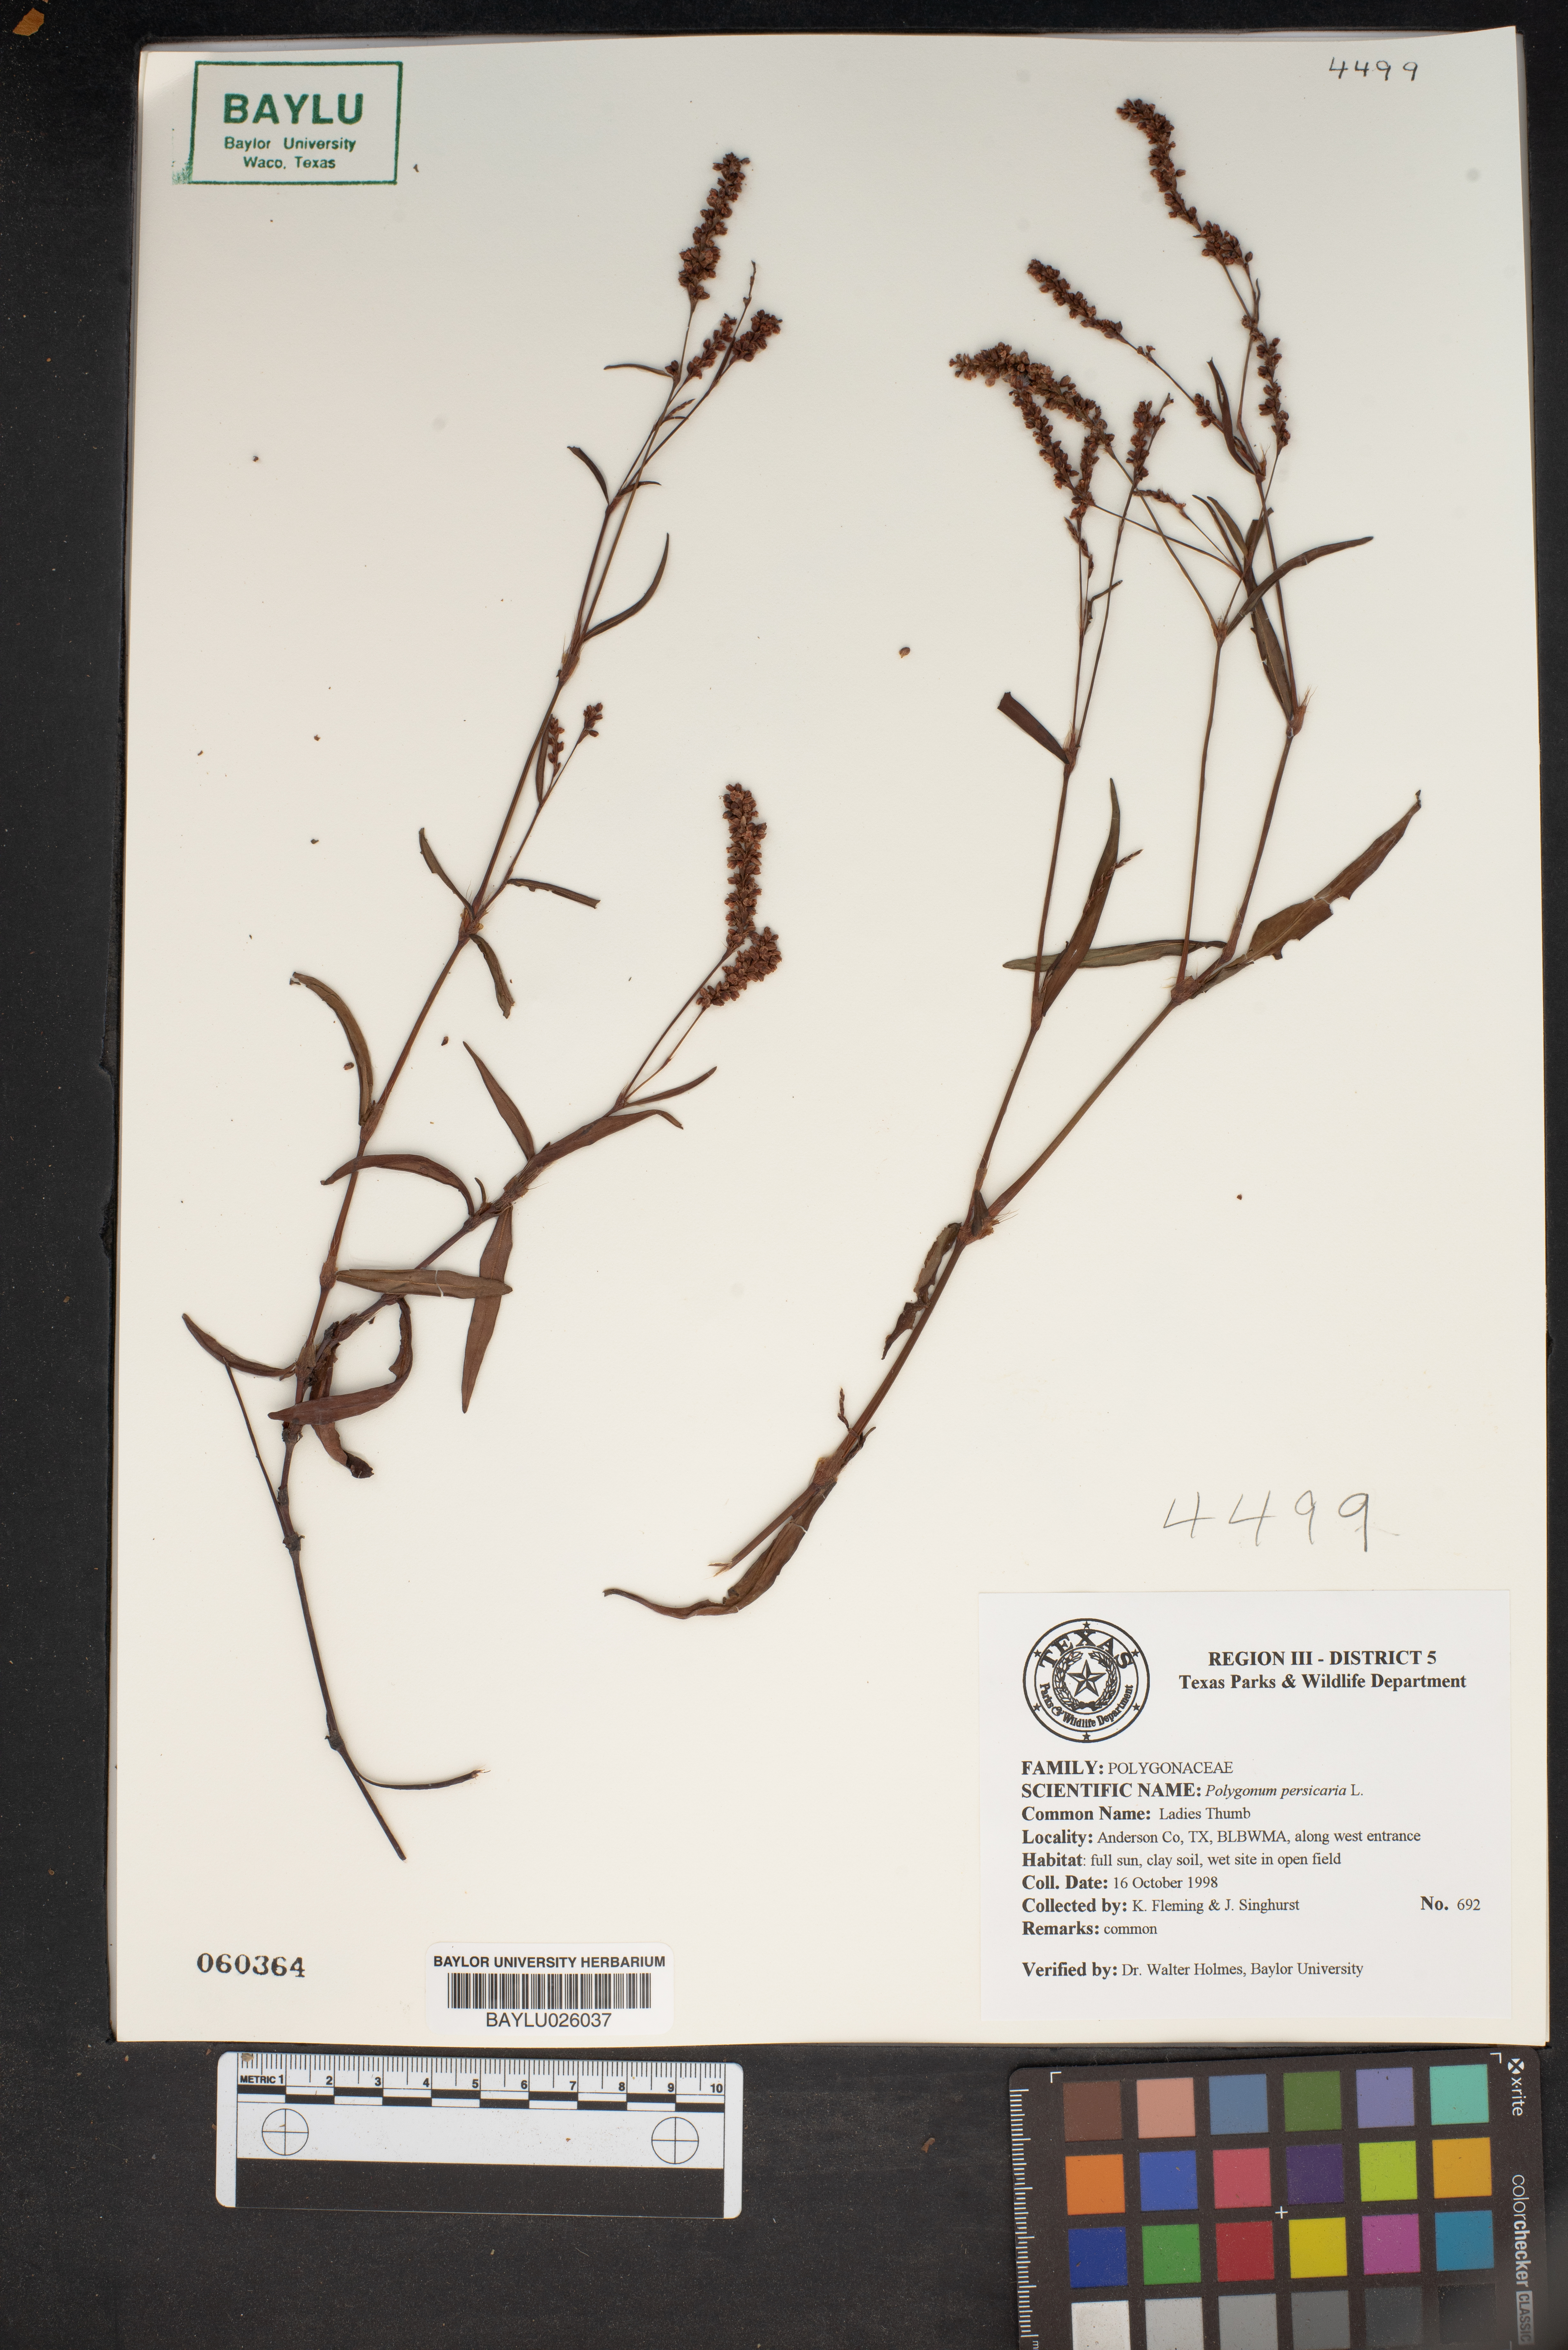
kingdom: Plantae
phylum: Tracheophyta
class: Magnoliopsida
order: Caryophyllales
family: Polygonaceae
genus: Persicaria
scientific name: Persicaria maculosa
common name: Redshank
